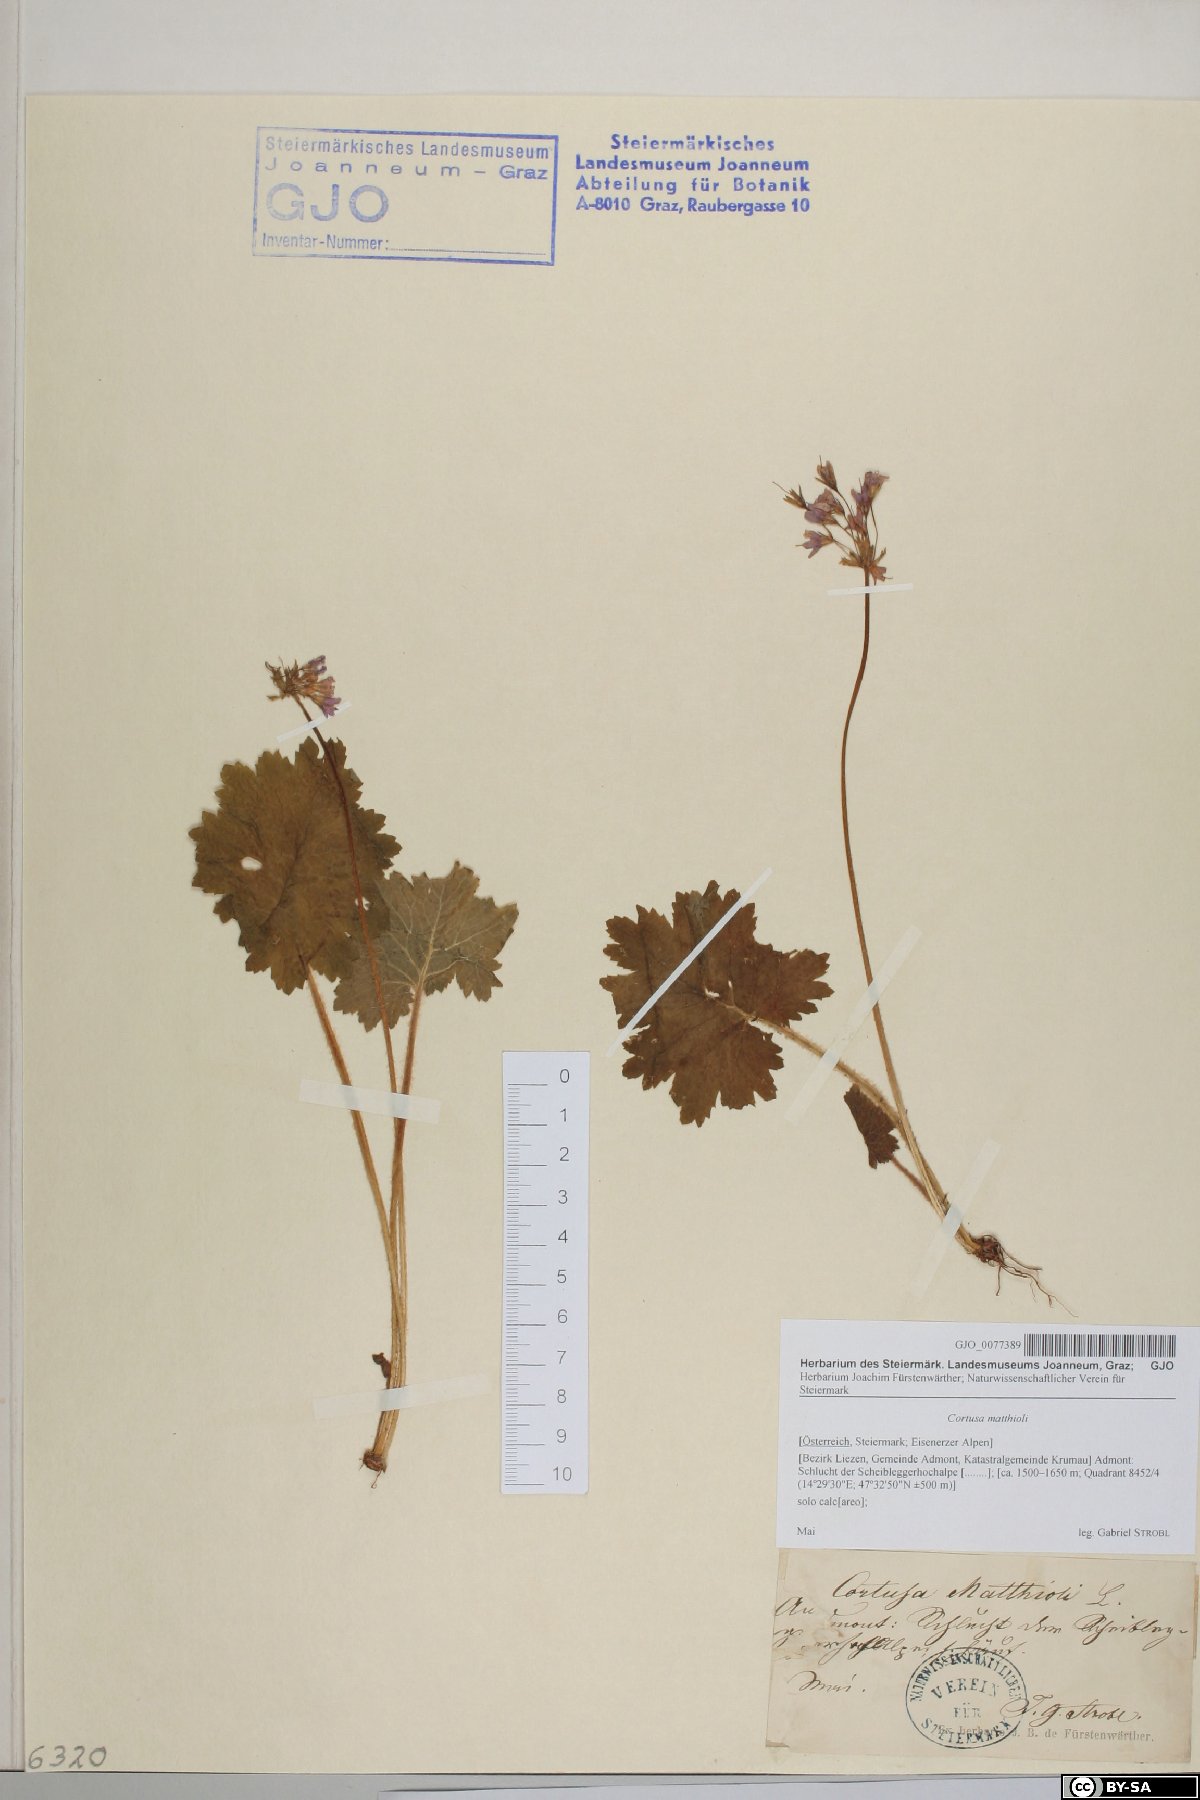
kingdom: Plantae
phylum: Tracheophyta
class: Magnoliopsida
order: Ericales
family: Primulaceae
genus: Primula
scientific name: Primula matthioli
